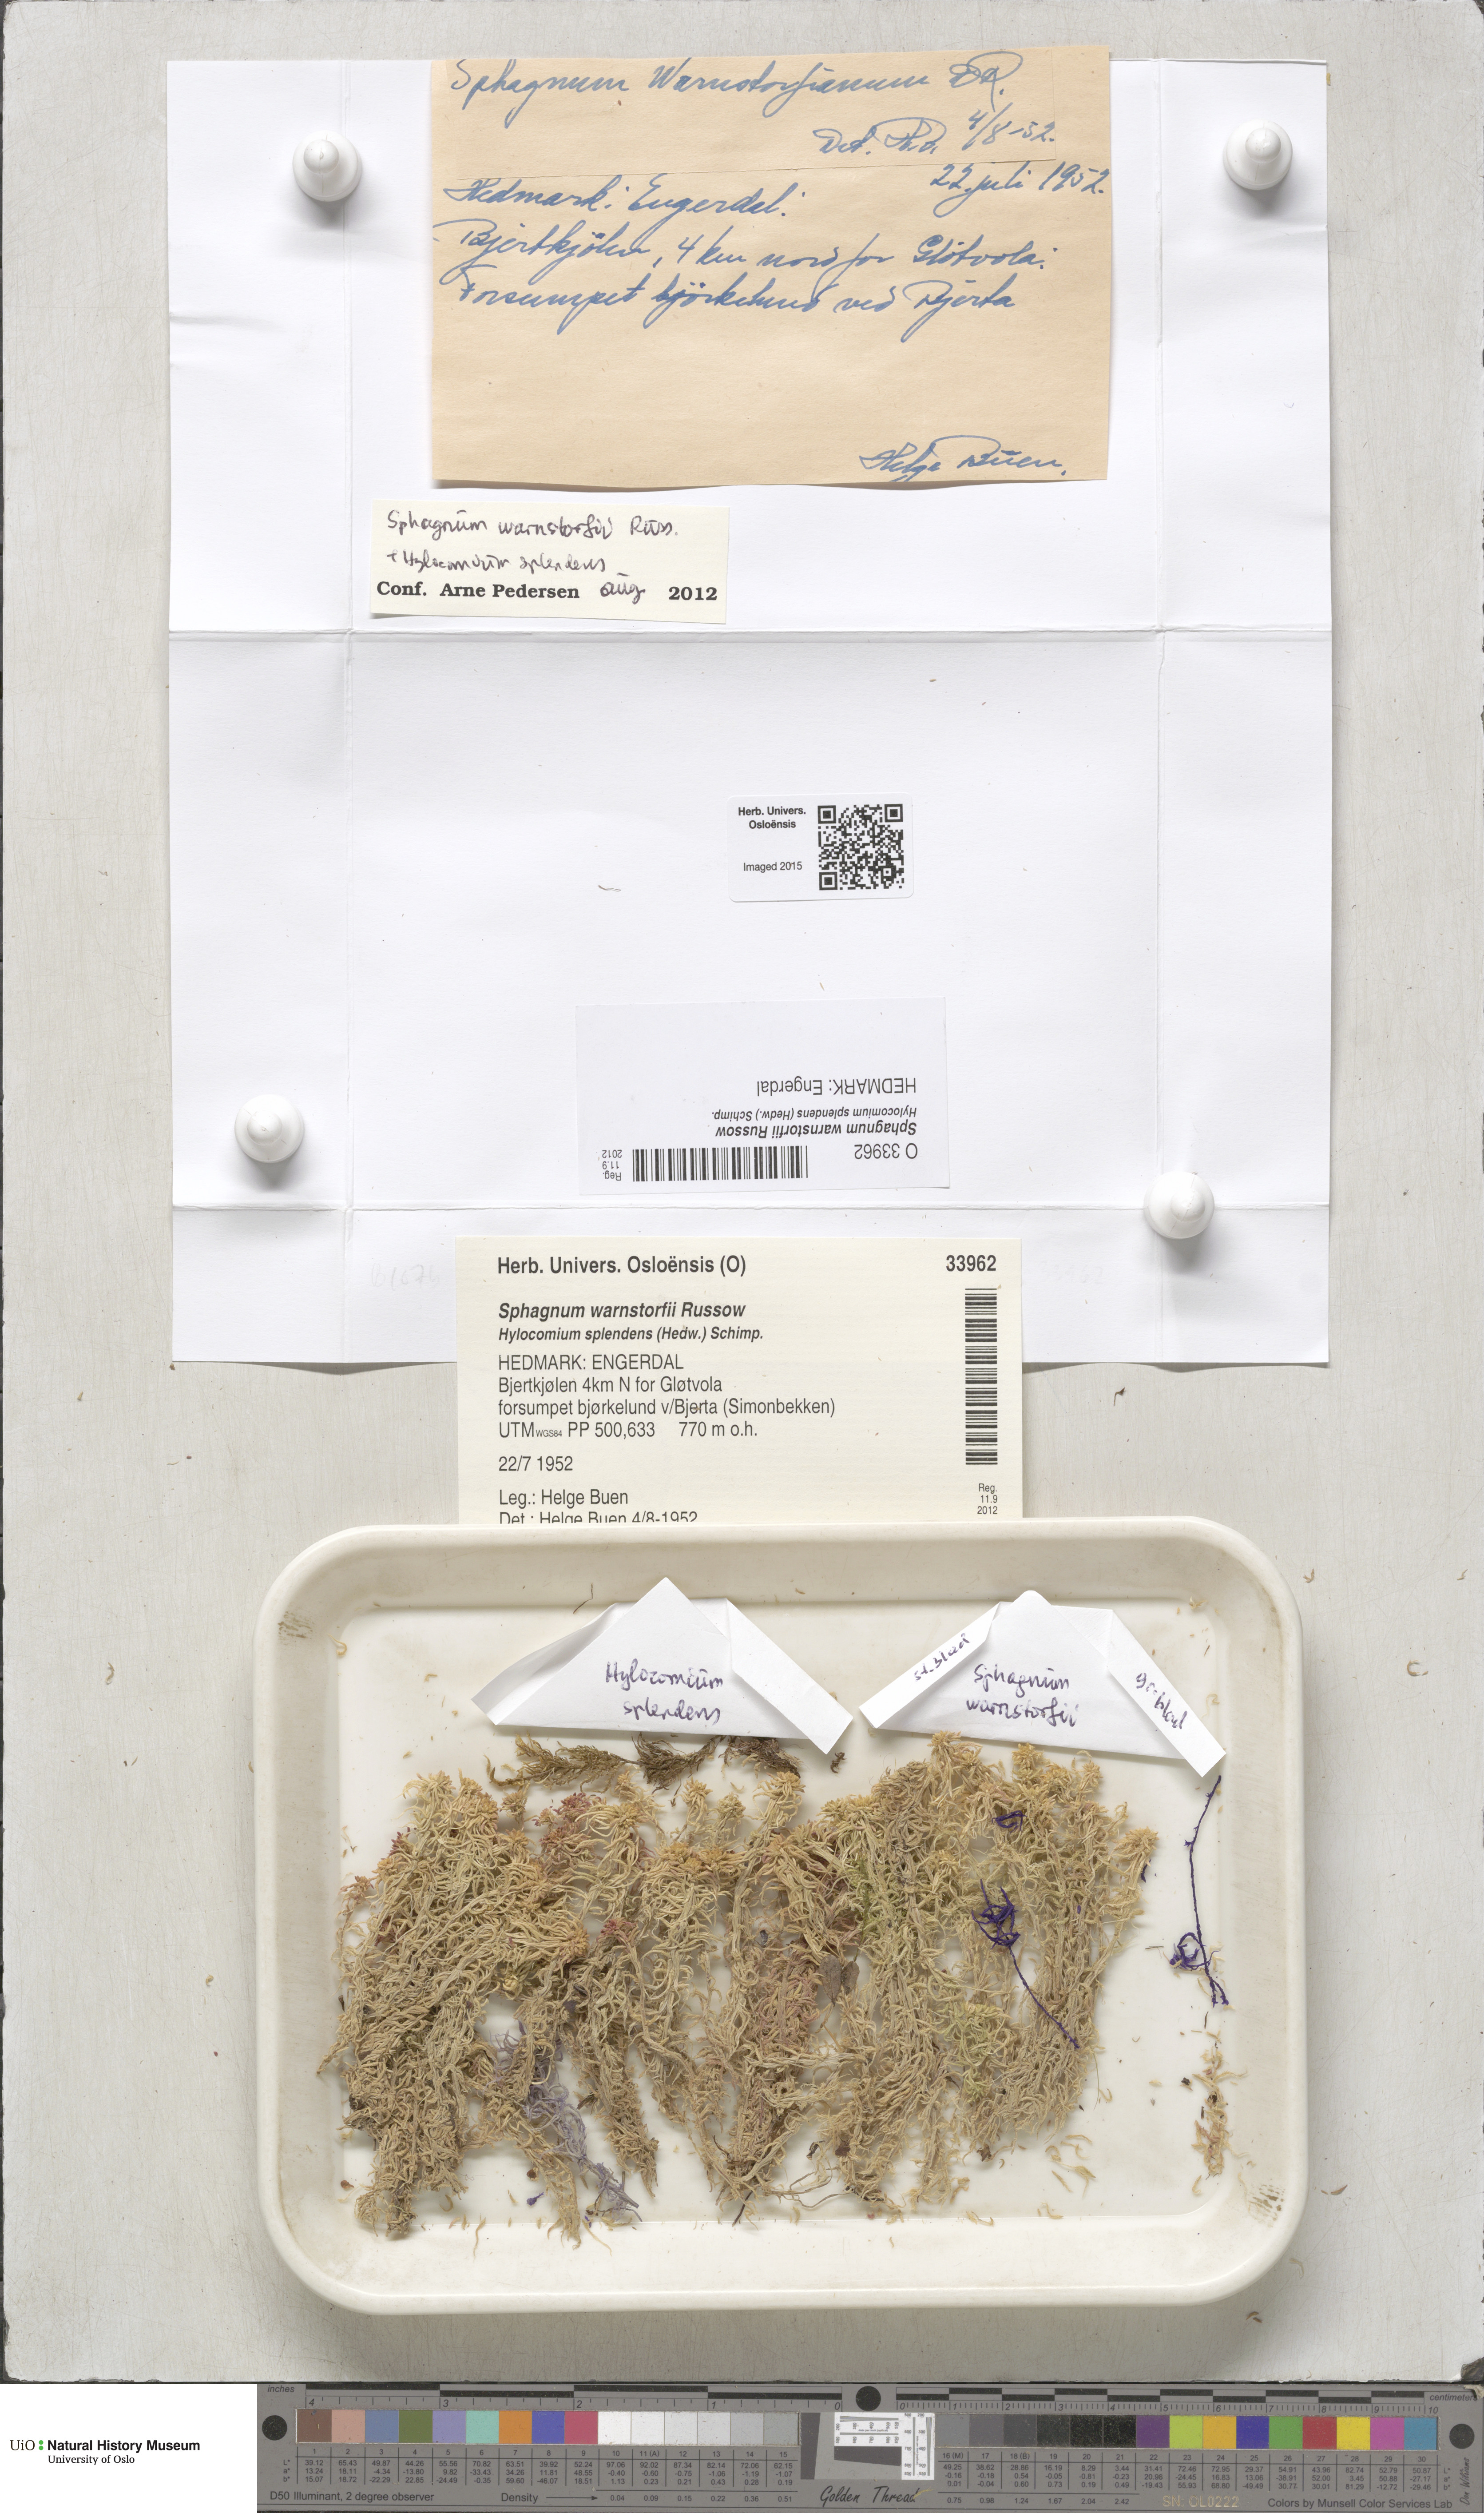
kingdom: Plantae
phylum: Bryophyta
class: Sphagnopsida
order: Sphagnales
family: Sphagnaceae
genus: Sphagnum
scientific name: Sphagnum warnstorfii
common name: Warnstorf's peat moss
